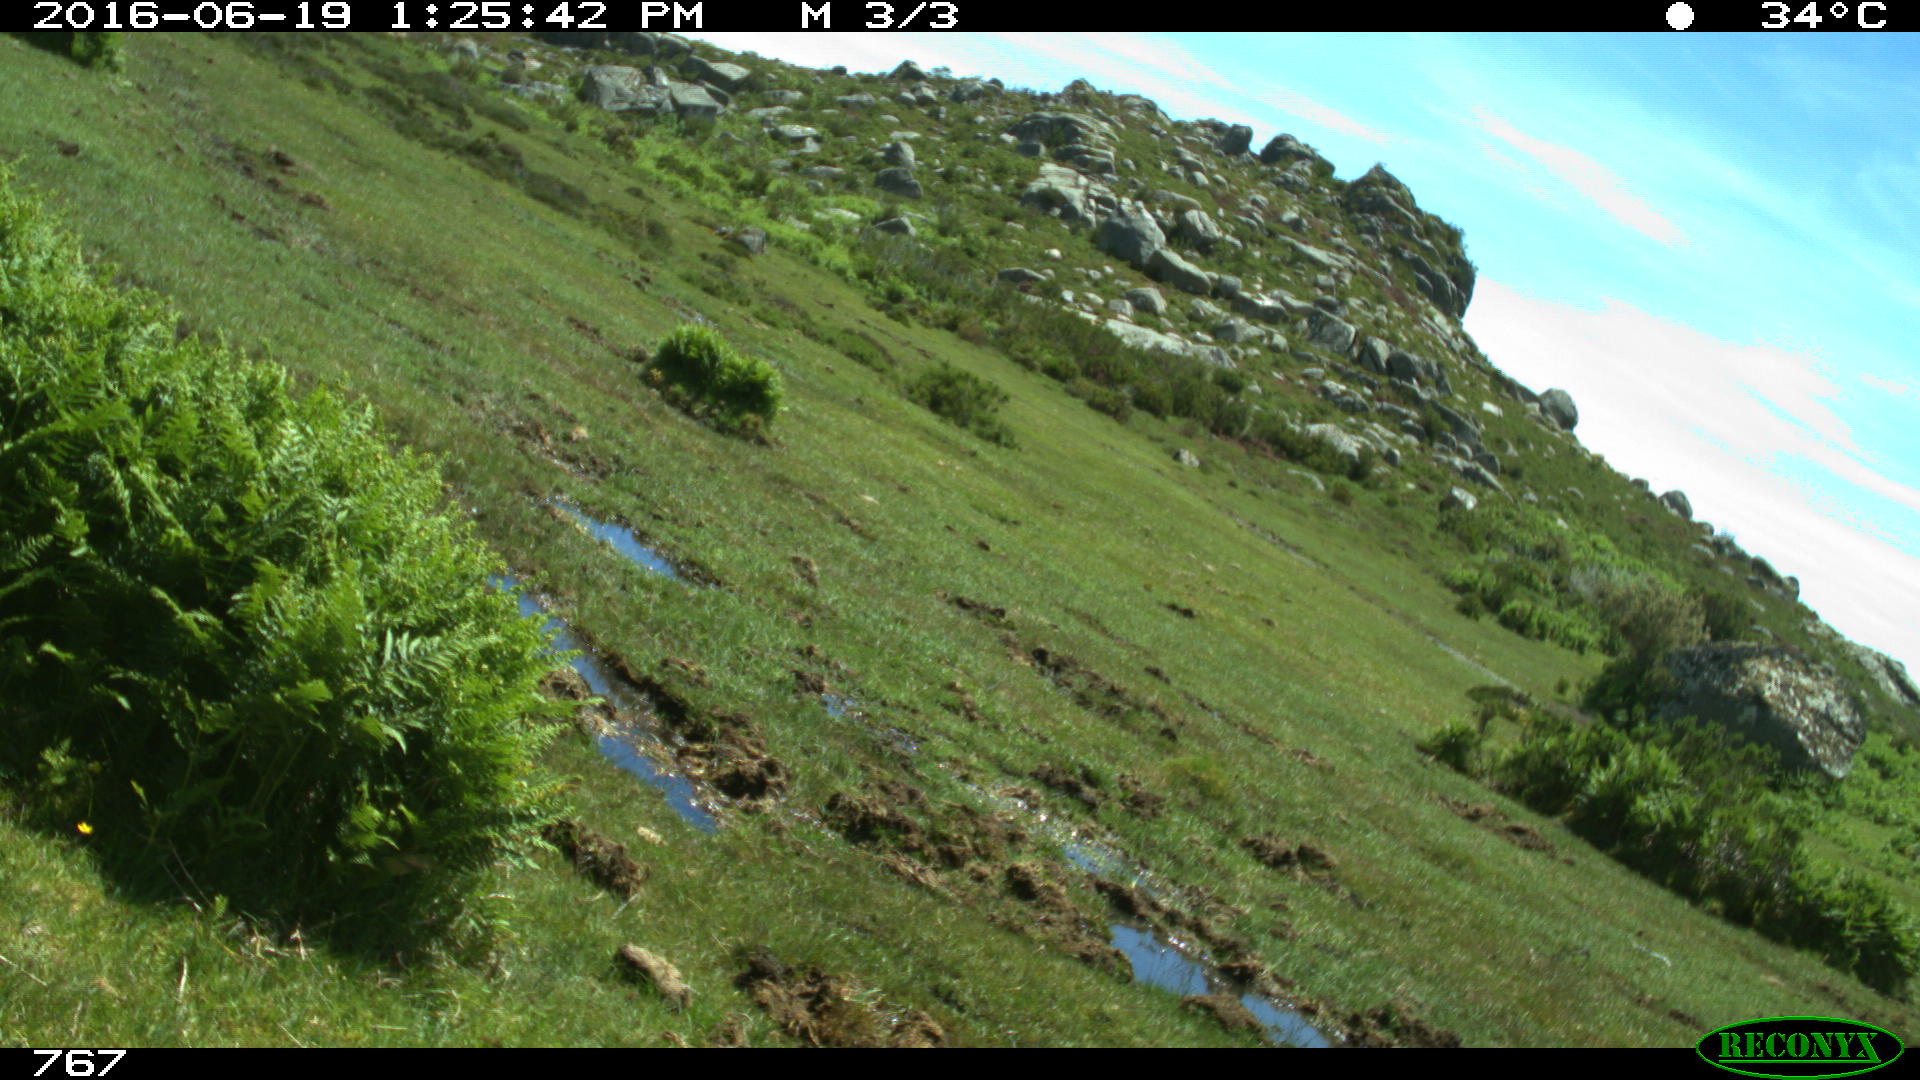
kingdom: Animalia
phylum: Chordata
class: Mammalia
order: Artiodactyla
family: Bovidae
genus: Bos
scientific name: Bos taurus
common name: Domesticated cattle
